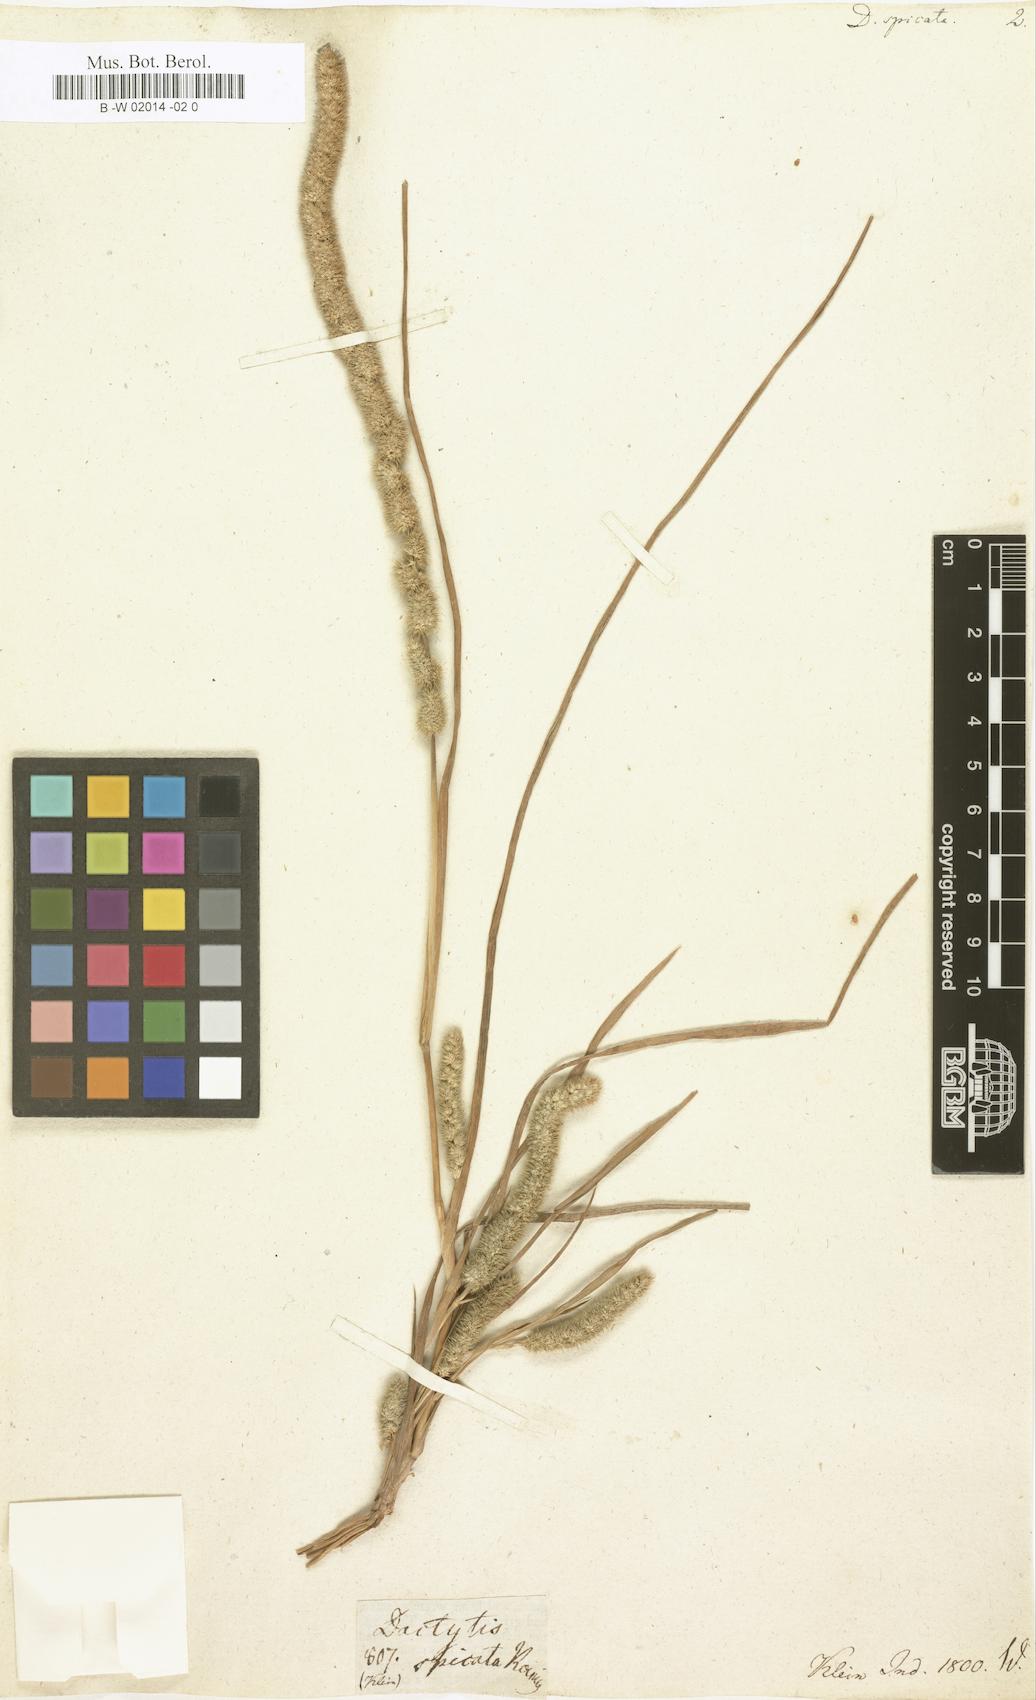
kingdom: Plantae
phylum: Tracheophyta
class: Liliopsida
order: Poales
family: Poaceae
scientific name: Poaceae
